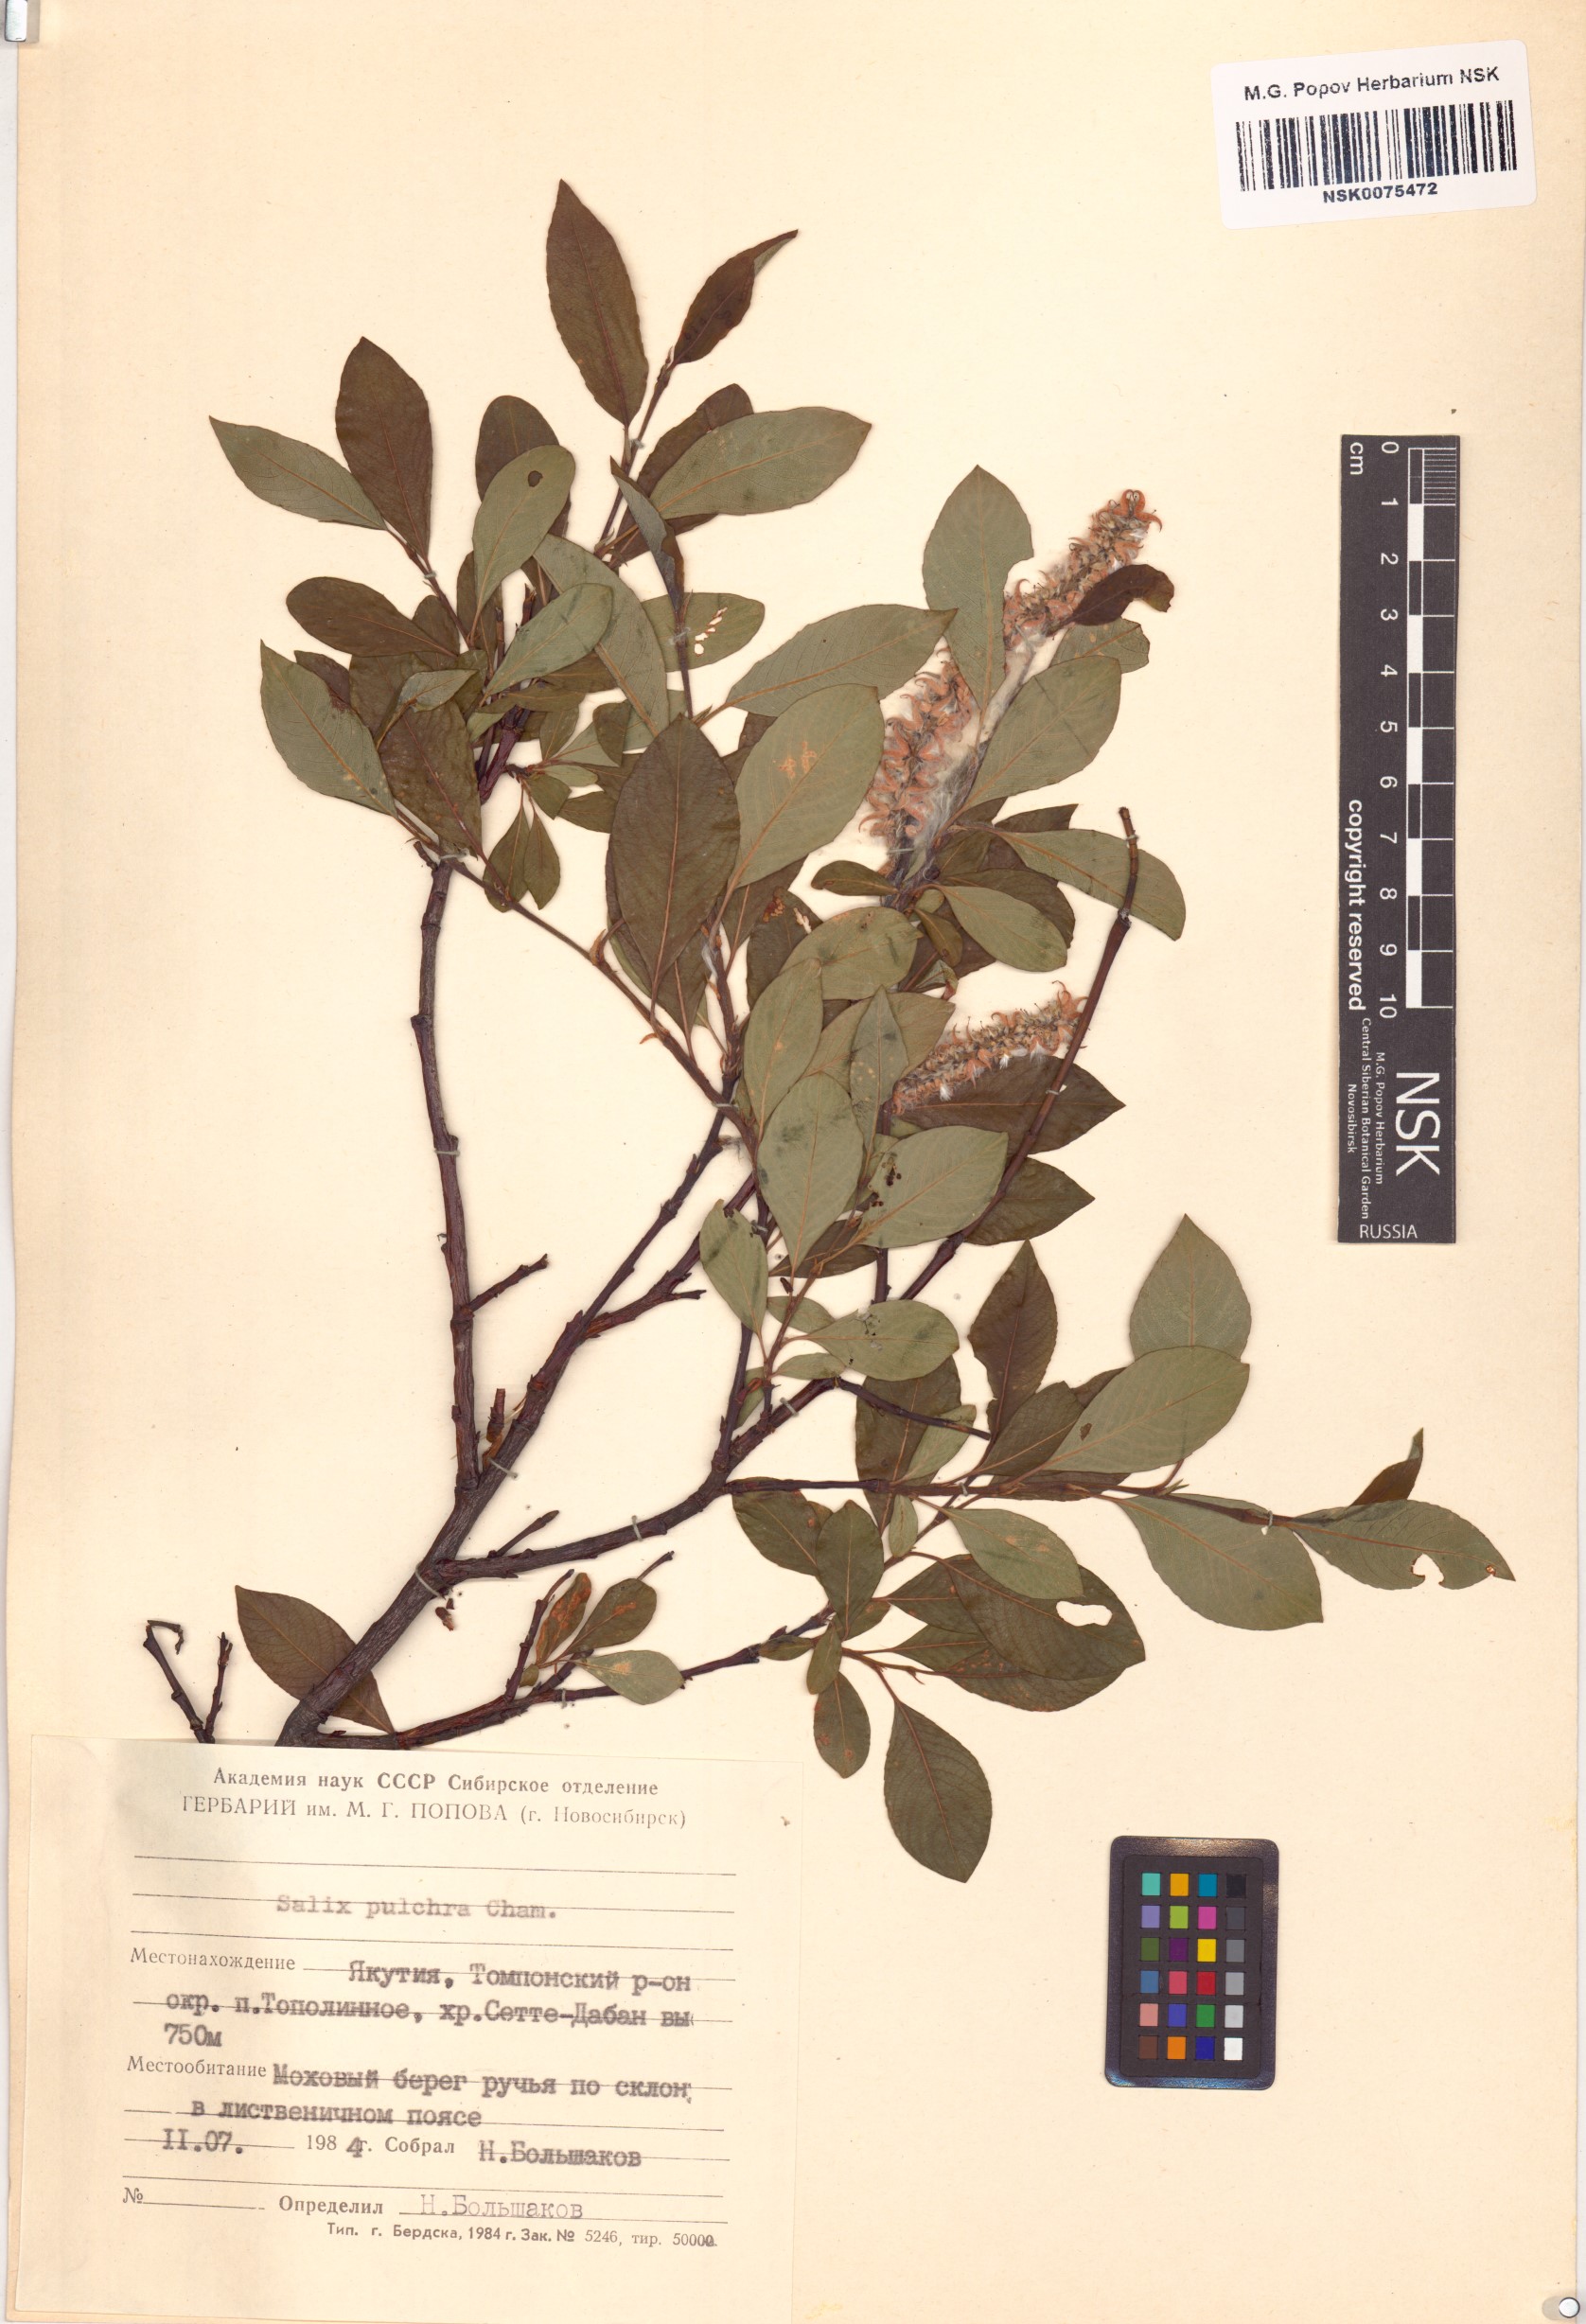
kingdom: Plantae
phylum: Tracheophyta
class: Magnoliopsida
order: Malpighiales
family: Salicaceae
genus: Salix
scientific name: Salix pulchra
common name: Diamond-leaved willow
